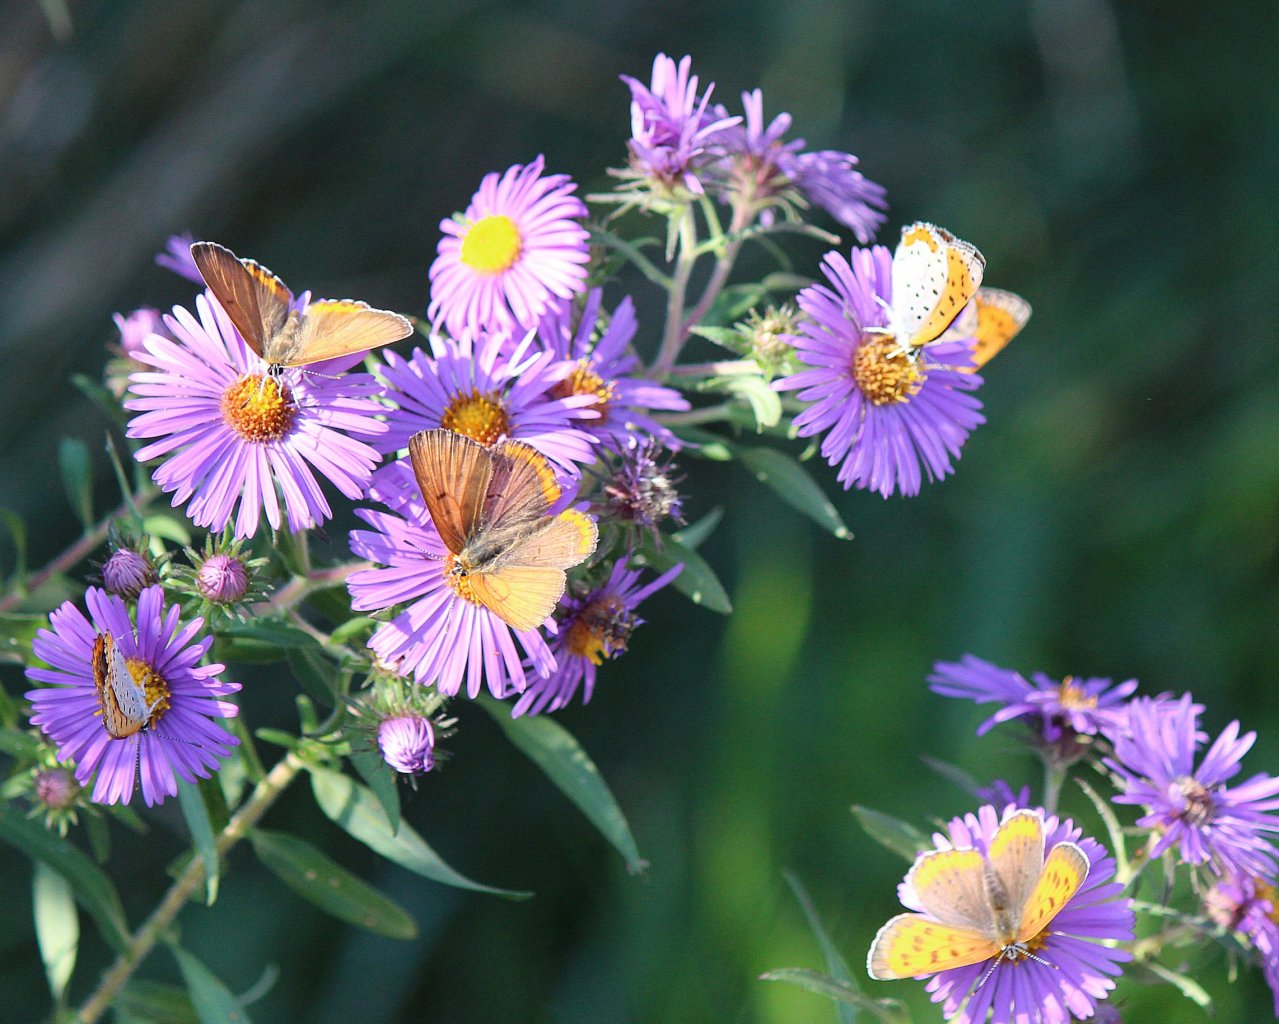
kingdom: Animalia
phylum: Arthropoda
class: Insecta
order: Lepidoptera
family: Sesiidae
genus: Sesia
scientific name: Sesia Lycaena hyllus
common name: Bronze Copper
